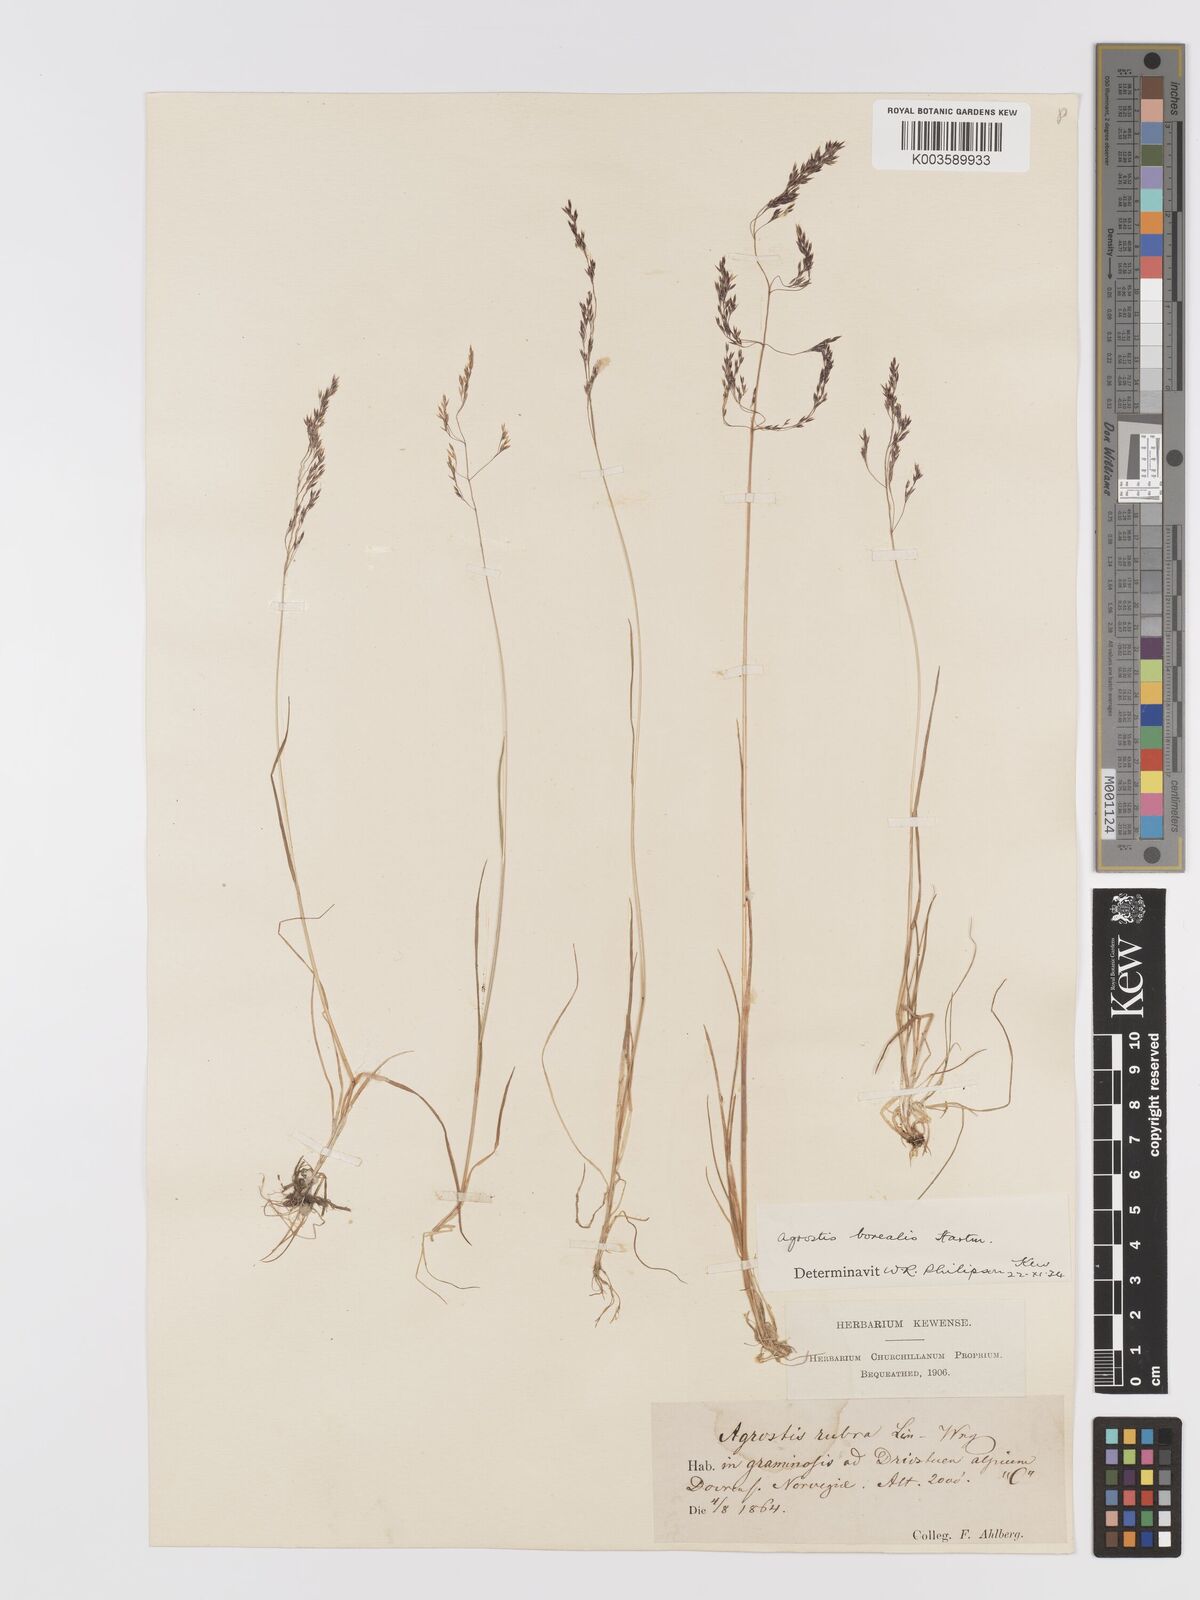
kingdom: Plantae
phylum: Tracheophyta
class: Liliopsida
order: Poales
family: Poaceae
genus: Agrostis
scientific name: Agrostis mertensii
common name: Northern bent
